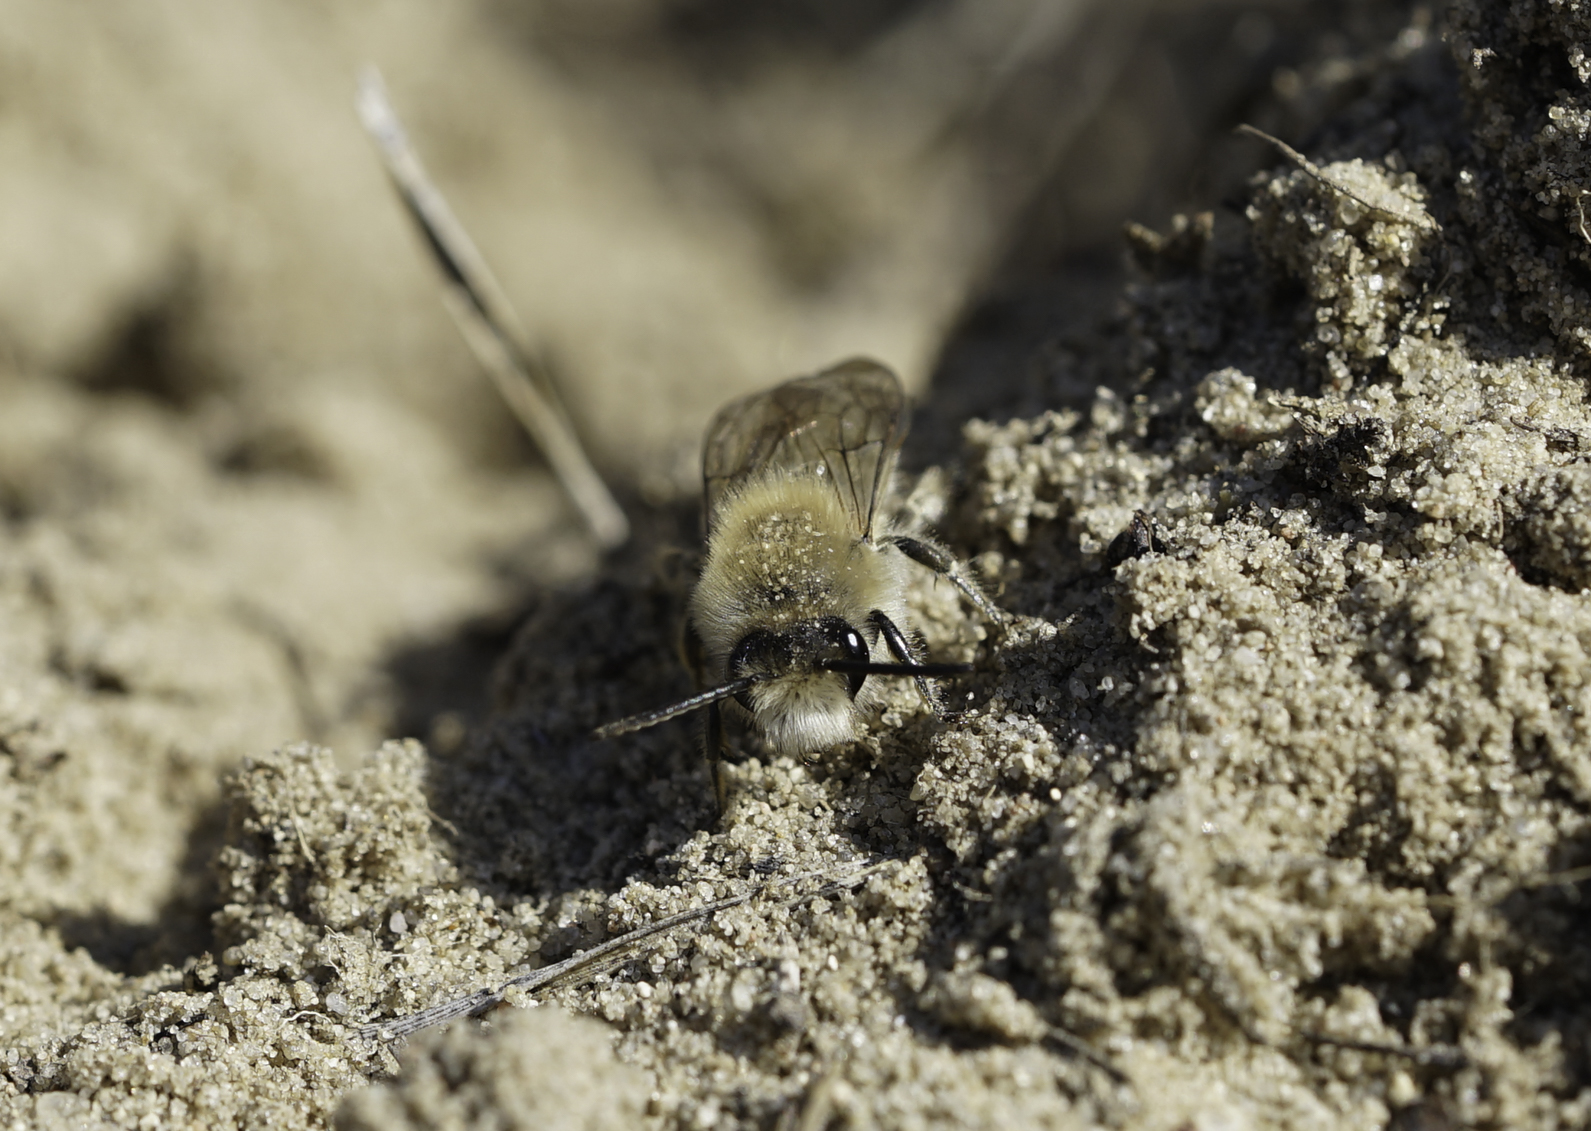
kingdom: Animalia
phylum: Arthropoda
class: Insecta
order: Hymenoptera
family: Colletidae
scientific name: Colletidae
